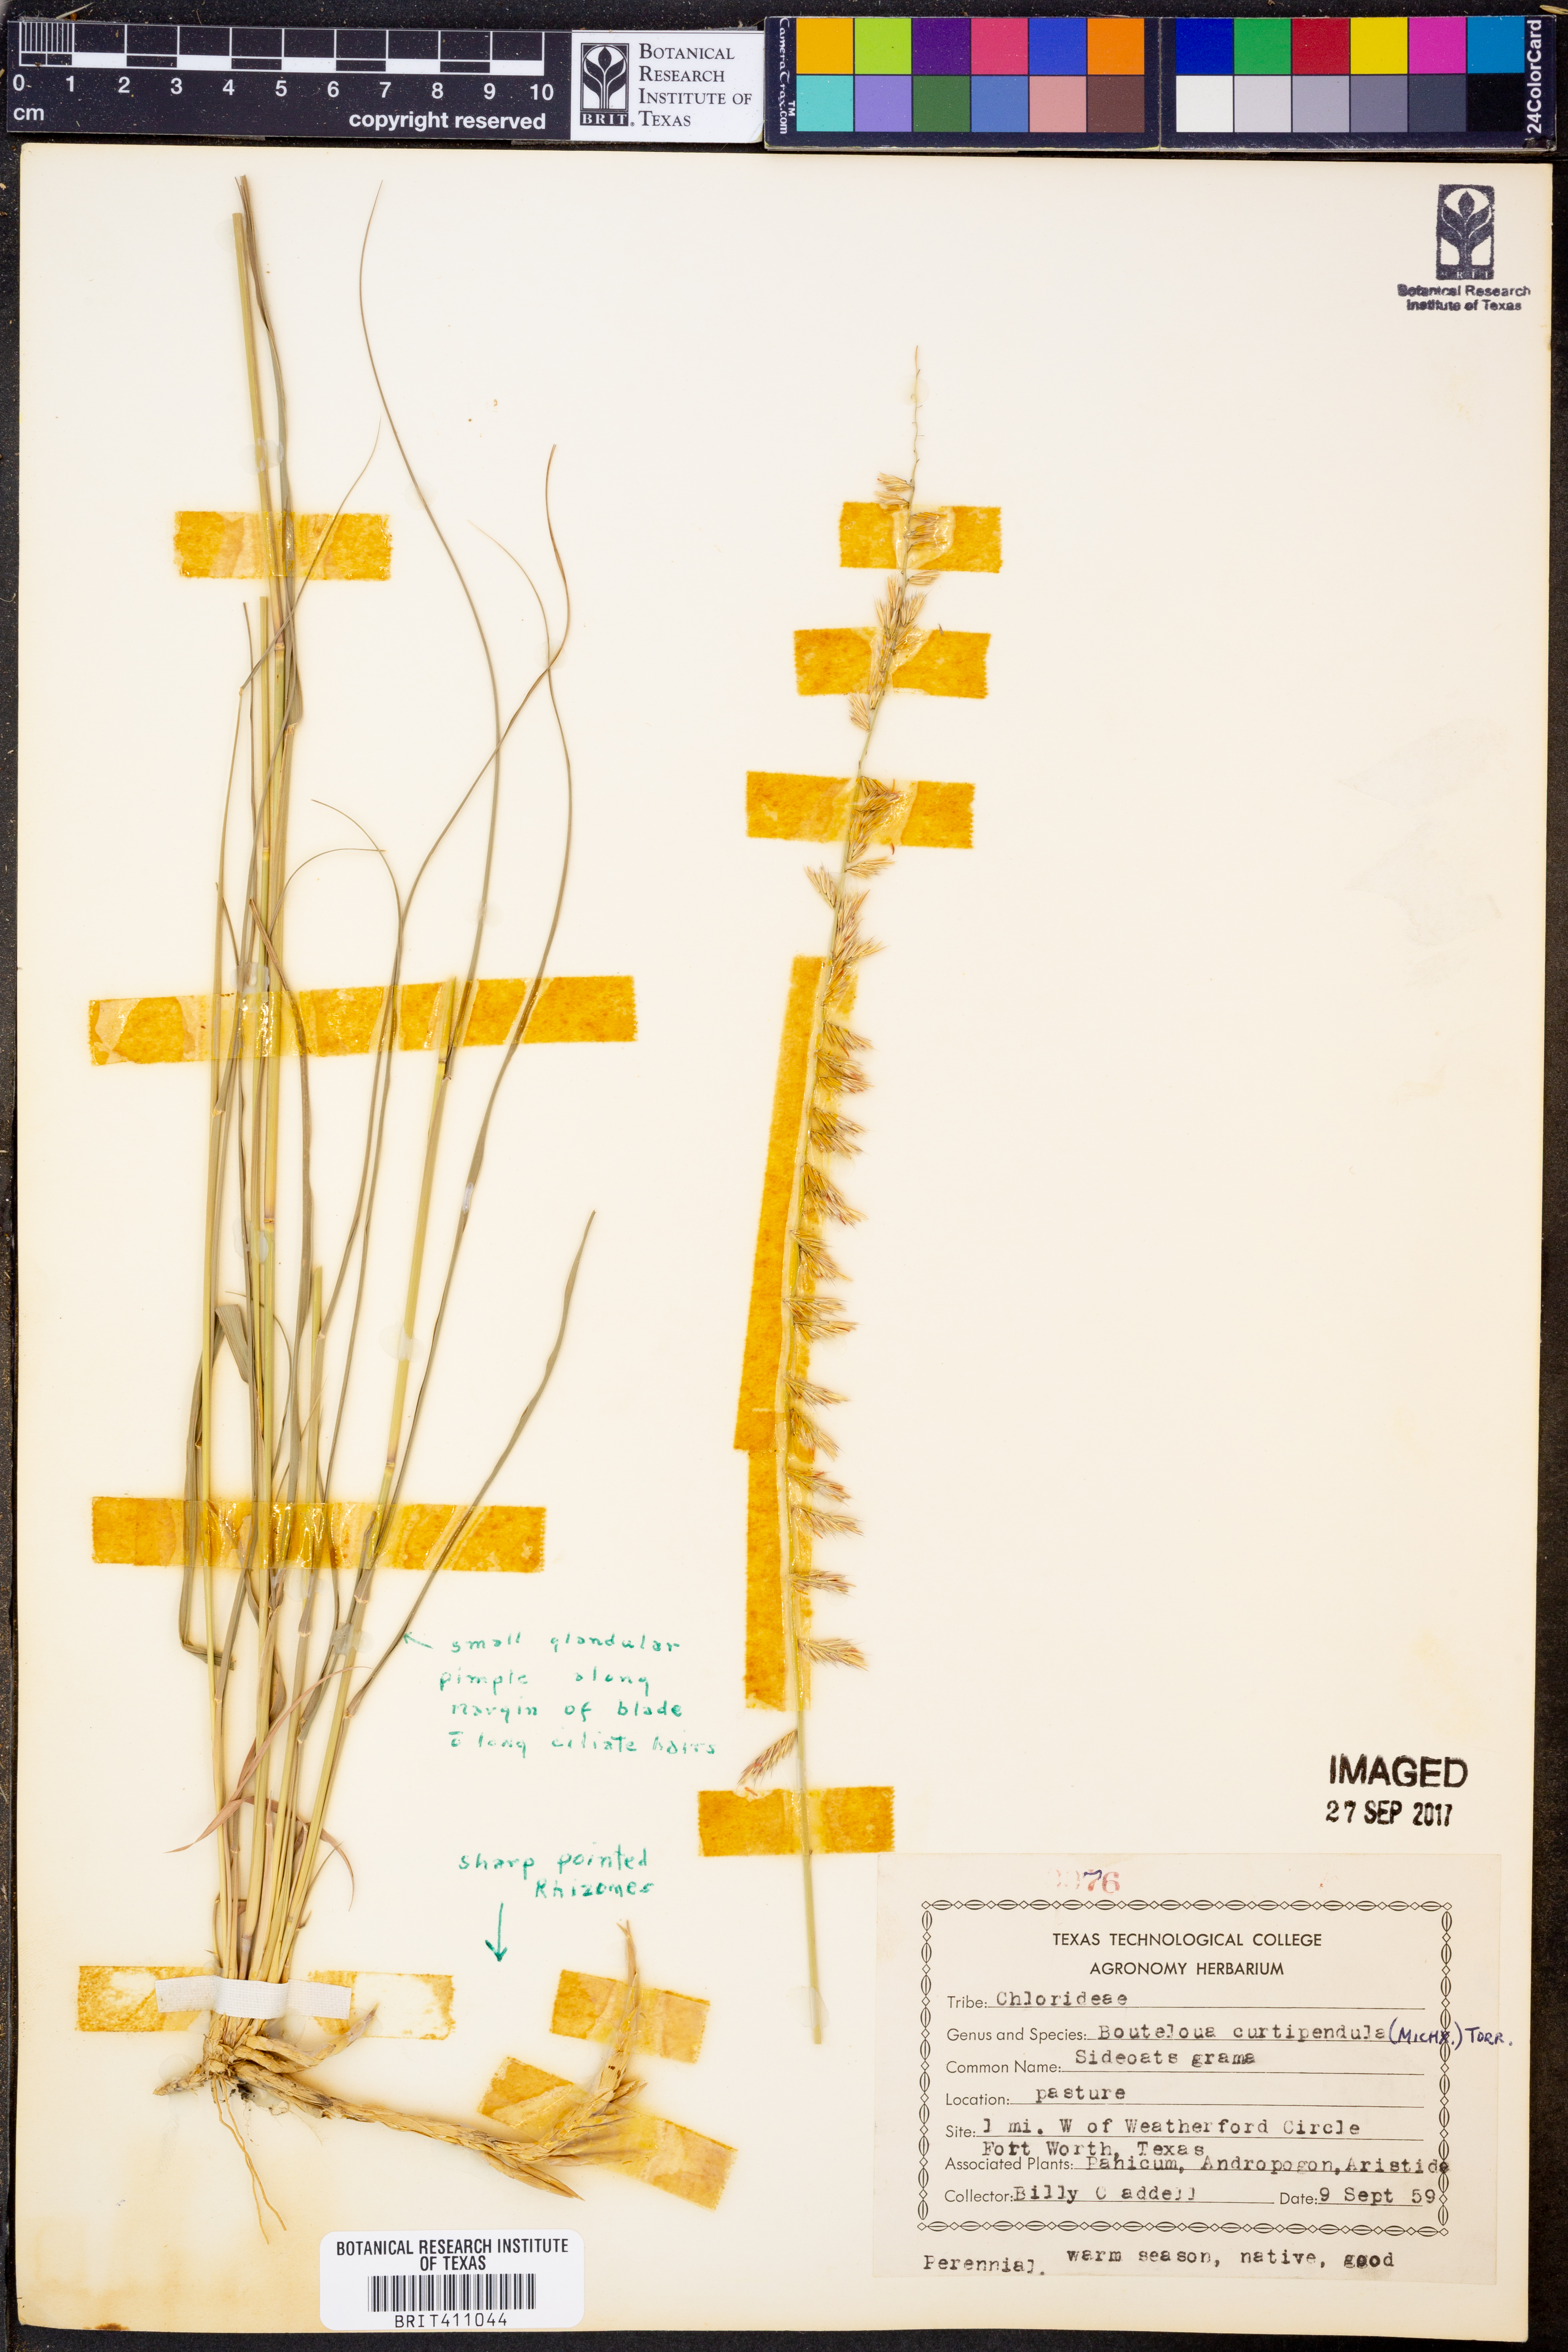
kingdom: Plantae
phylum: Tracheophyta
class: Liliopsida
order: Poales
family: Poaceae
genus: Bouteloua
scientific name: Bouteloua curtipendula
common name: Side-oats grama
